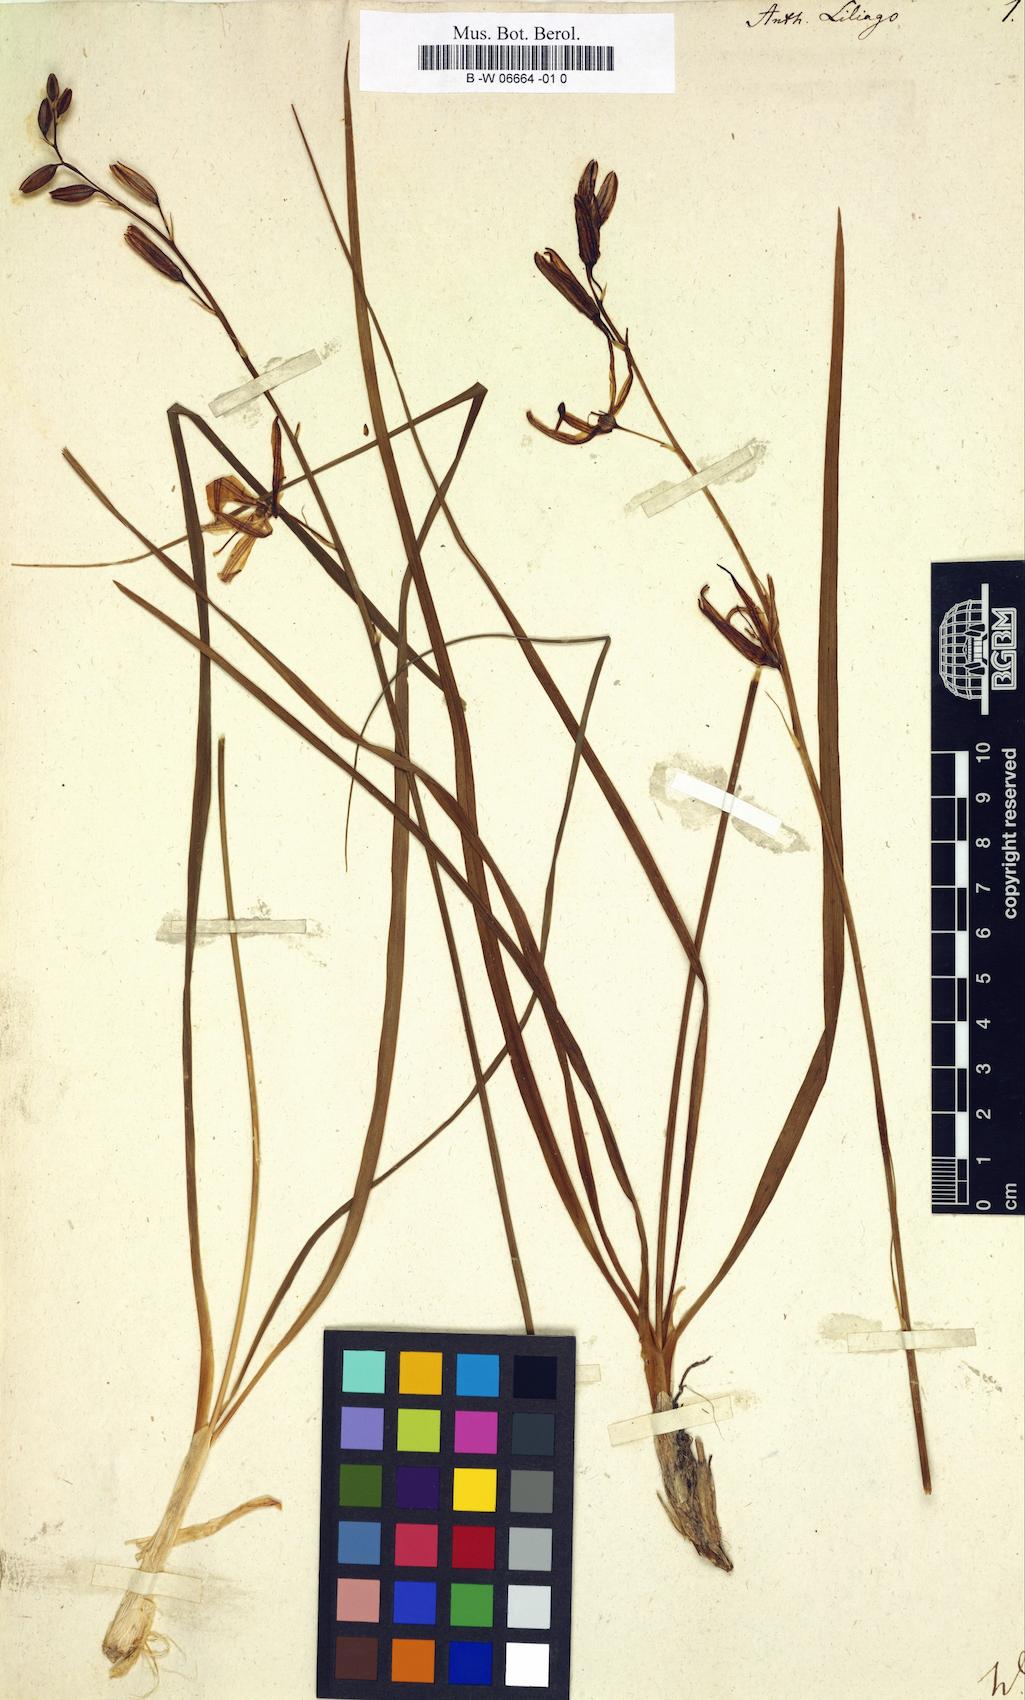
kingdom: Plantae
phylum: Tracheophyta
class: Liliopsida
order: Asparagales
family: Asparagaceae
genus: Anthericum
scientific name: Anthericum liliago
